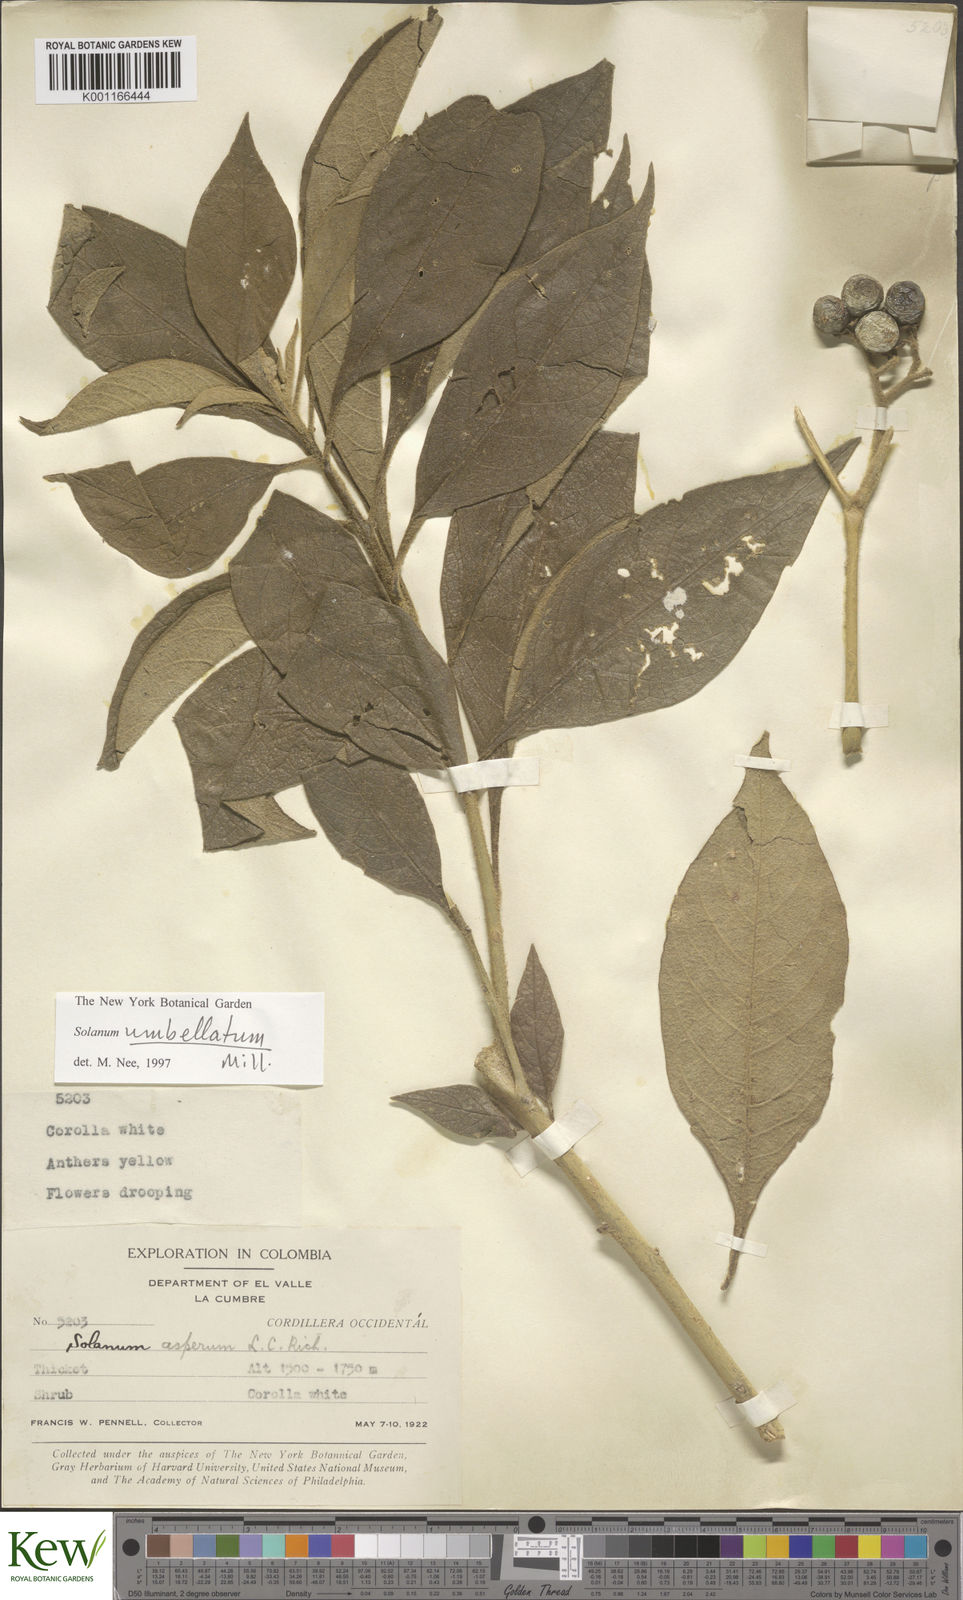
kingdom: Plantae
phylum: Tracheophyta
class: Magnoliopsida
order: Solanales
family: Solanaceae
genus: Solanum
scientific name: Solanum umbellatum
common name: Nightshade
